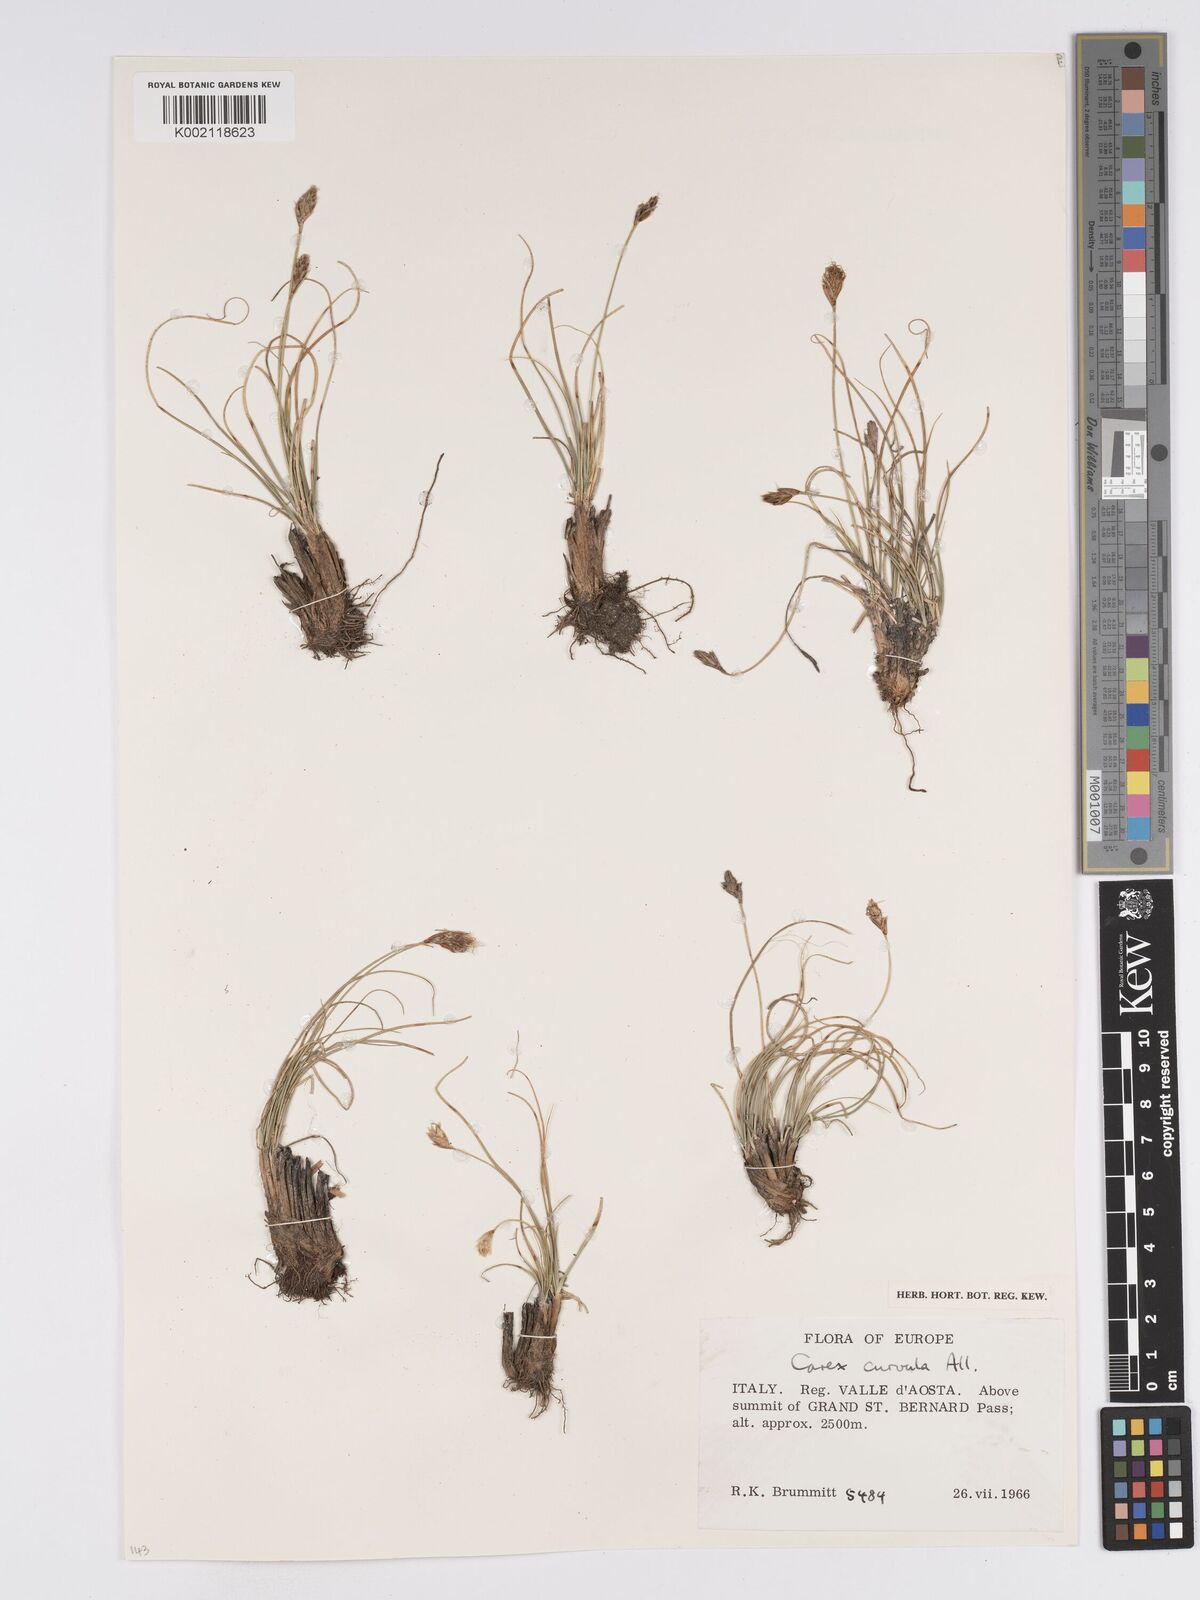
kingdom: Plantae
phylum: Tracheophyta
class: Liliopsida
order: Poales
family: Cyperaceae
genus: Carex
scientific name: Carex curvula
